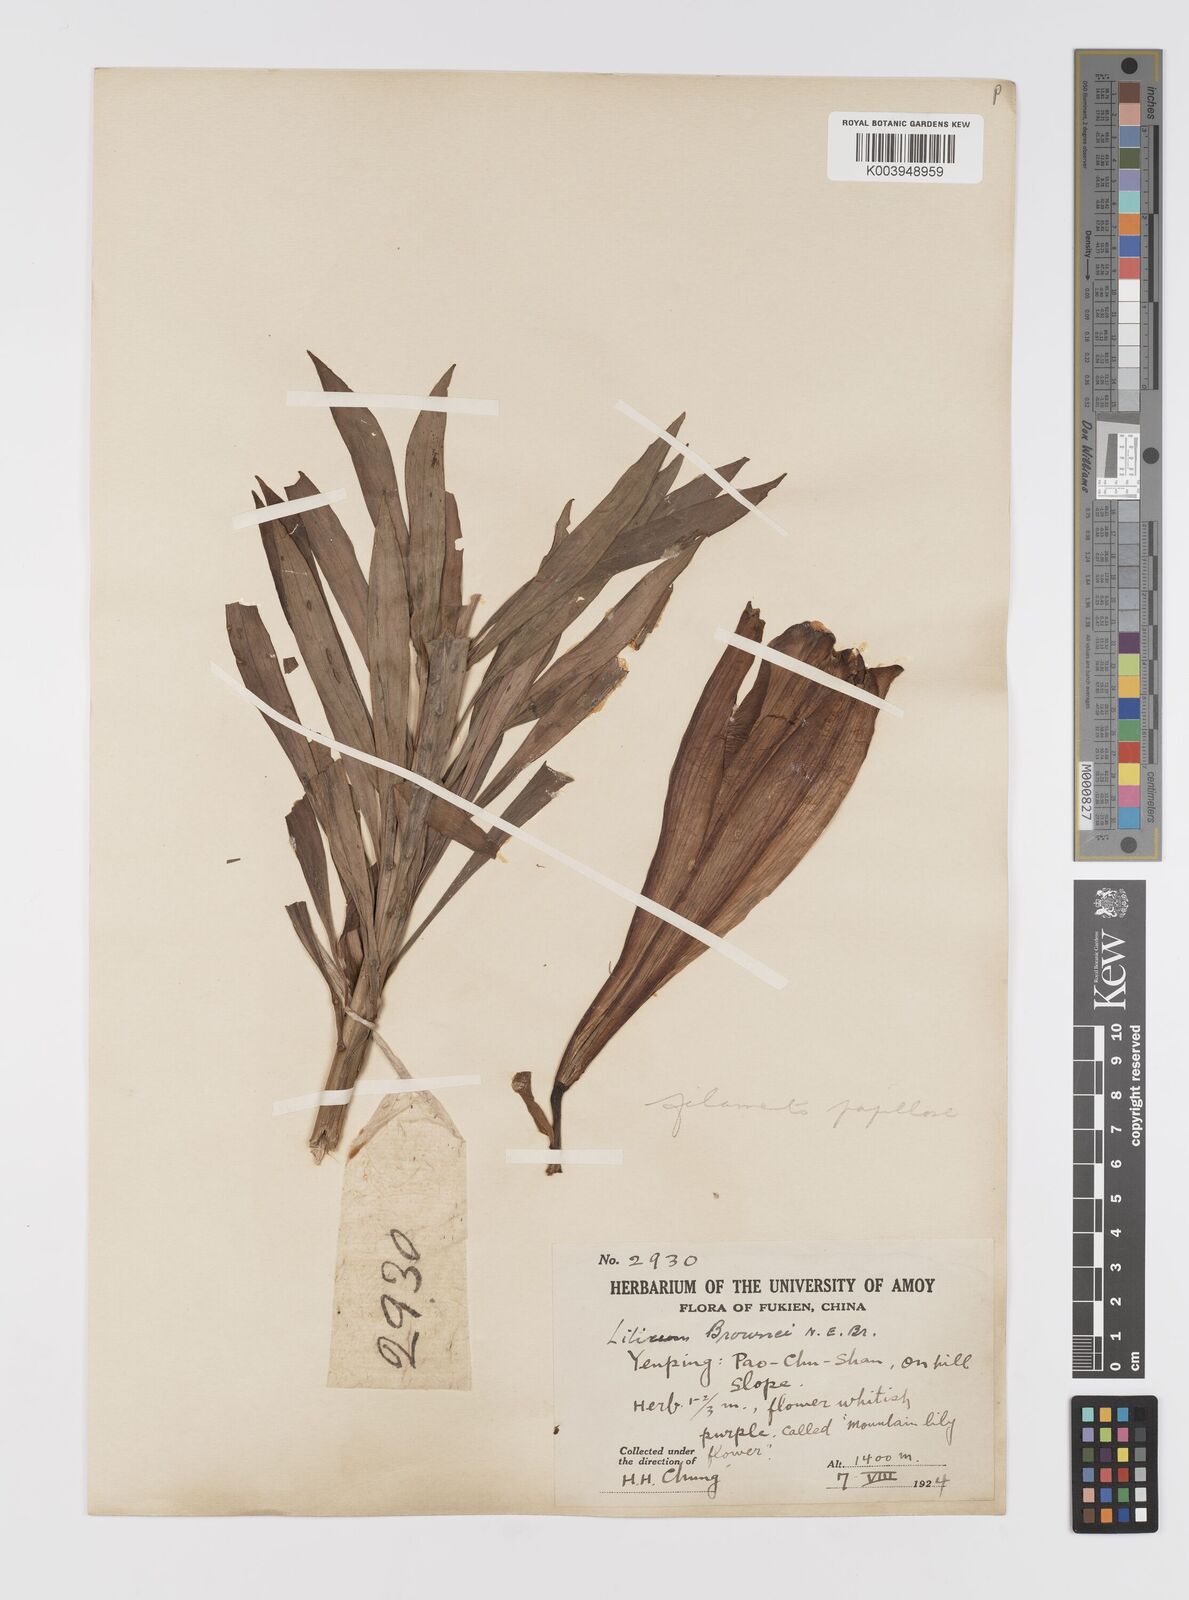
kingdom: Plantae
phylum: Tracheophyta
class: Liliopsida
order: Liliales
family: Liliaceae
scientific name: Liliaceae
